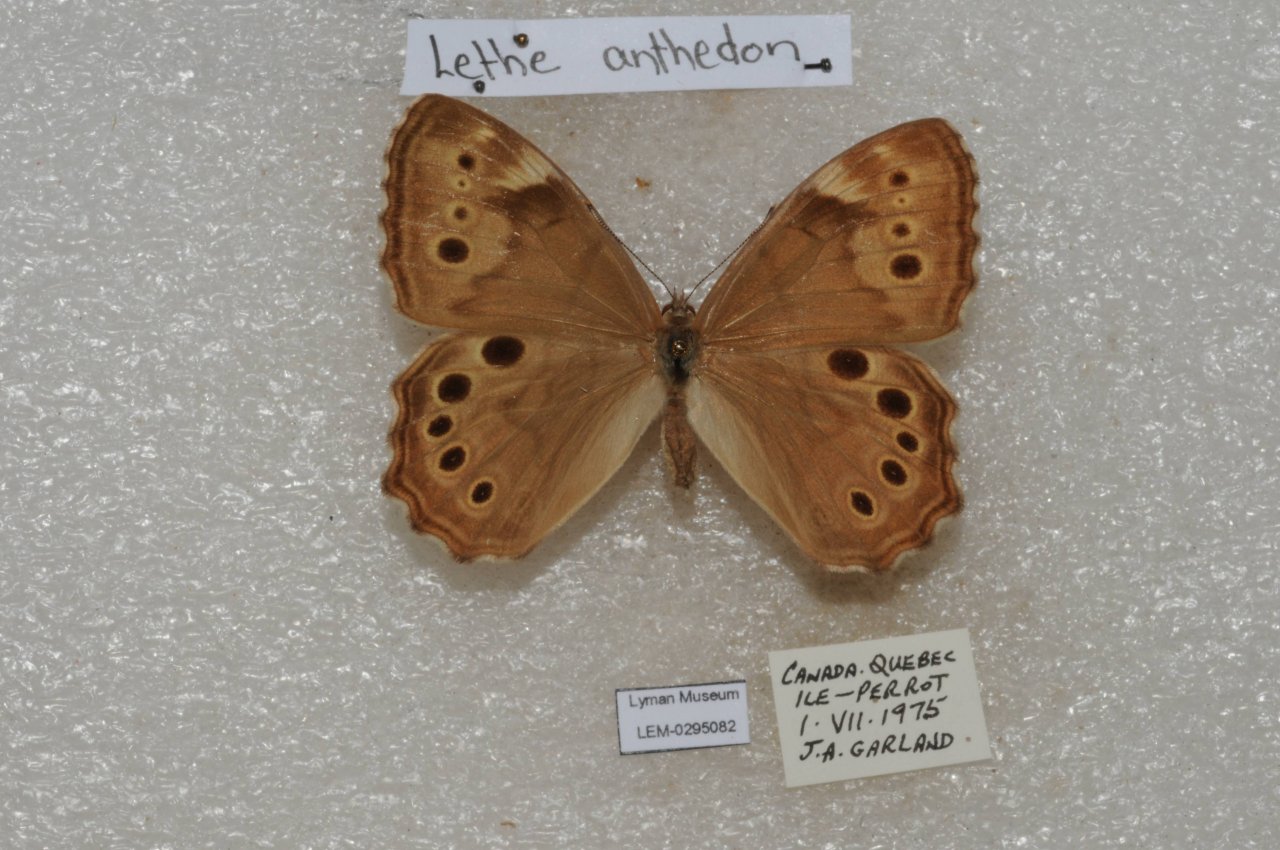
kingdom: Animalia
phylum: Arthropoda
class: Insecta
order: Lepidoptera
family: Nymphalidae
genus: Lethe
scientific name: Lethe anthedon
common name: Northern Pearly-Eye
